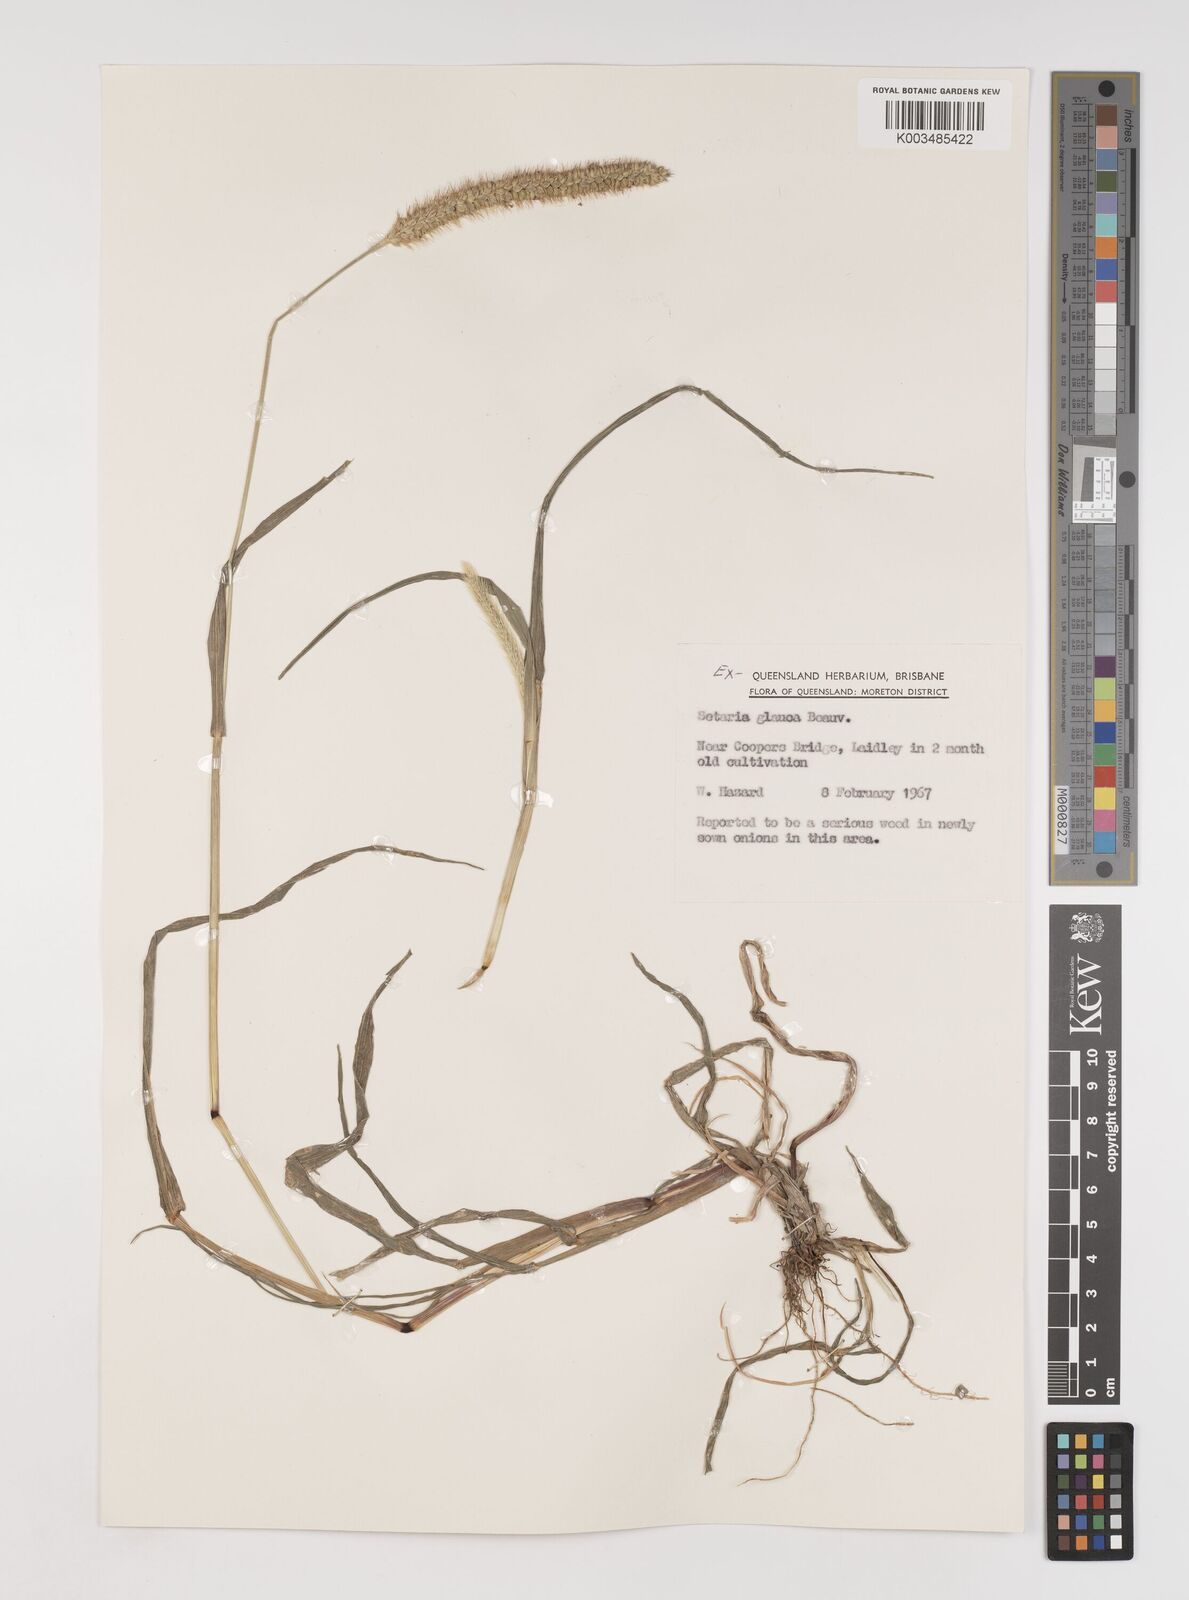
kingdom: Plantae
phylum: Tracheophyta
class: Liliopsida
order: Poales
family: Poaceae
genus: Setaria
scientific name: Setaria pumila
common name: Yellow bristle-grass
